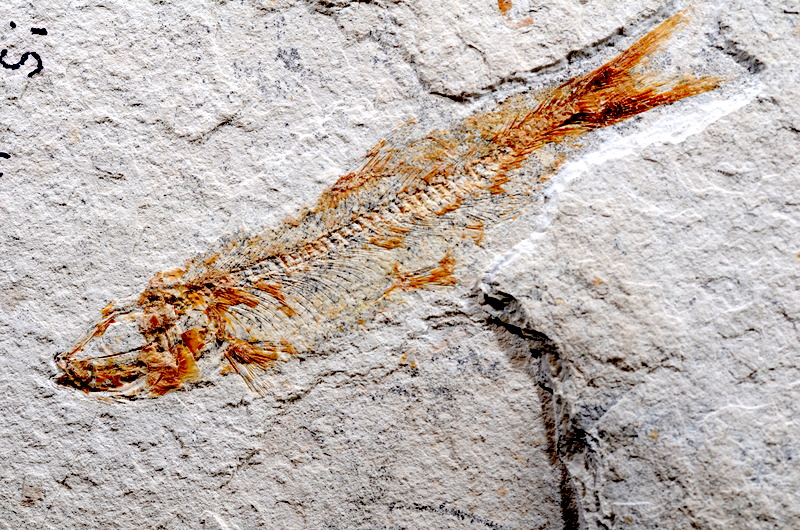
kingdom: Animalia
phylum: Chordata
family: Ascalaboidae
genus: Tharsis
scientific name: Tharsis dubius
